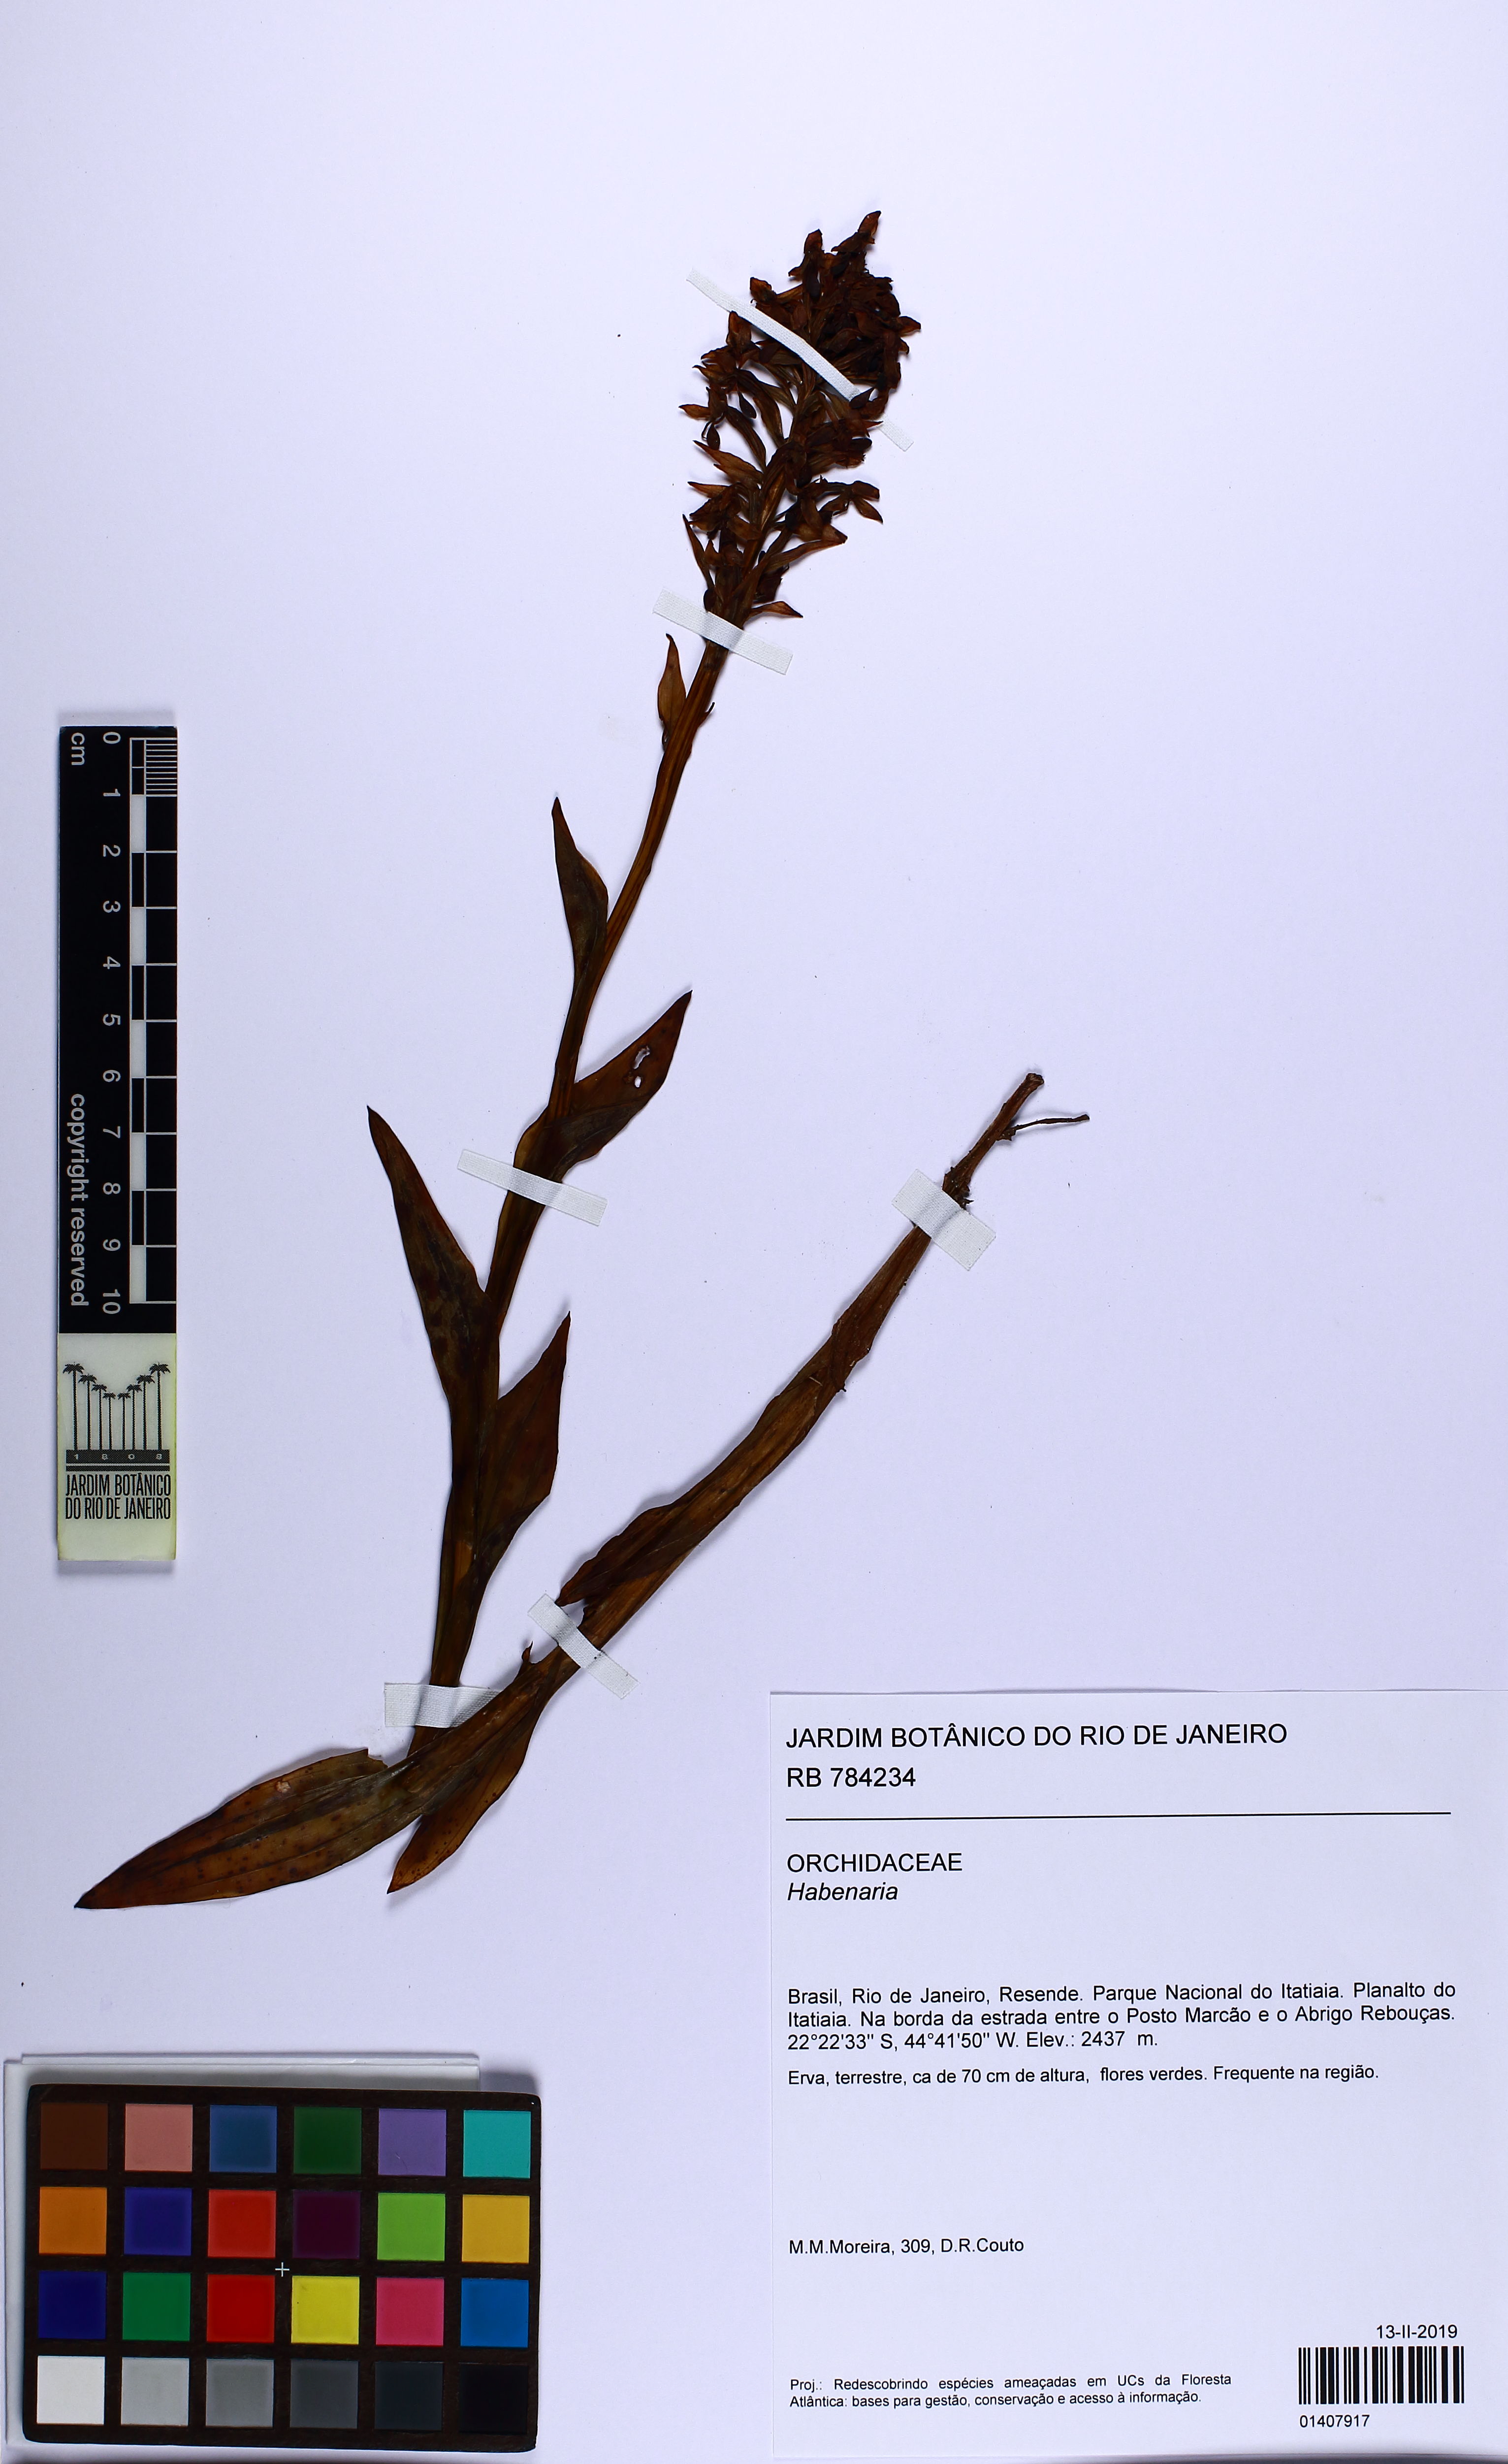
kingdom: Plantae
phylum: Tracheophyta
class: Liliopsida
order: Asparagales
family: Orchidaceae
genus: Habenaria
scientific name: Habenaria
